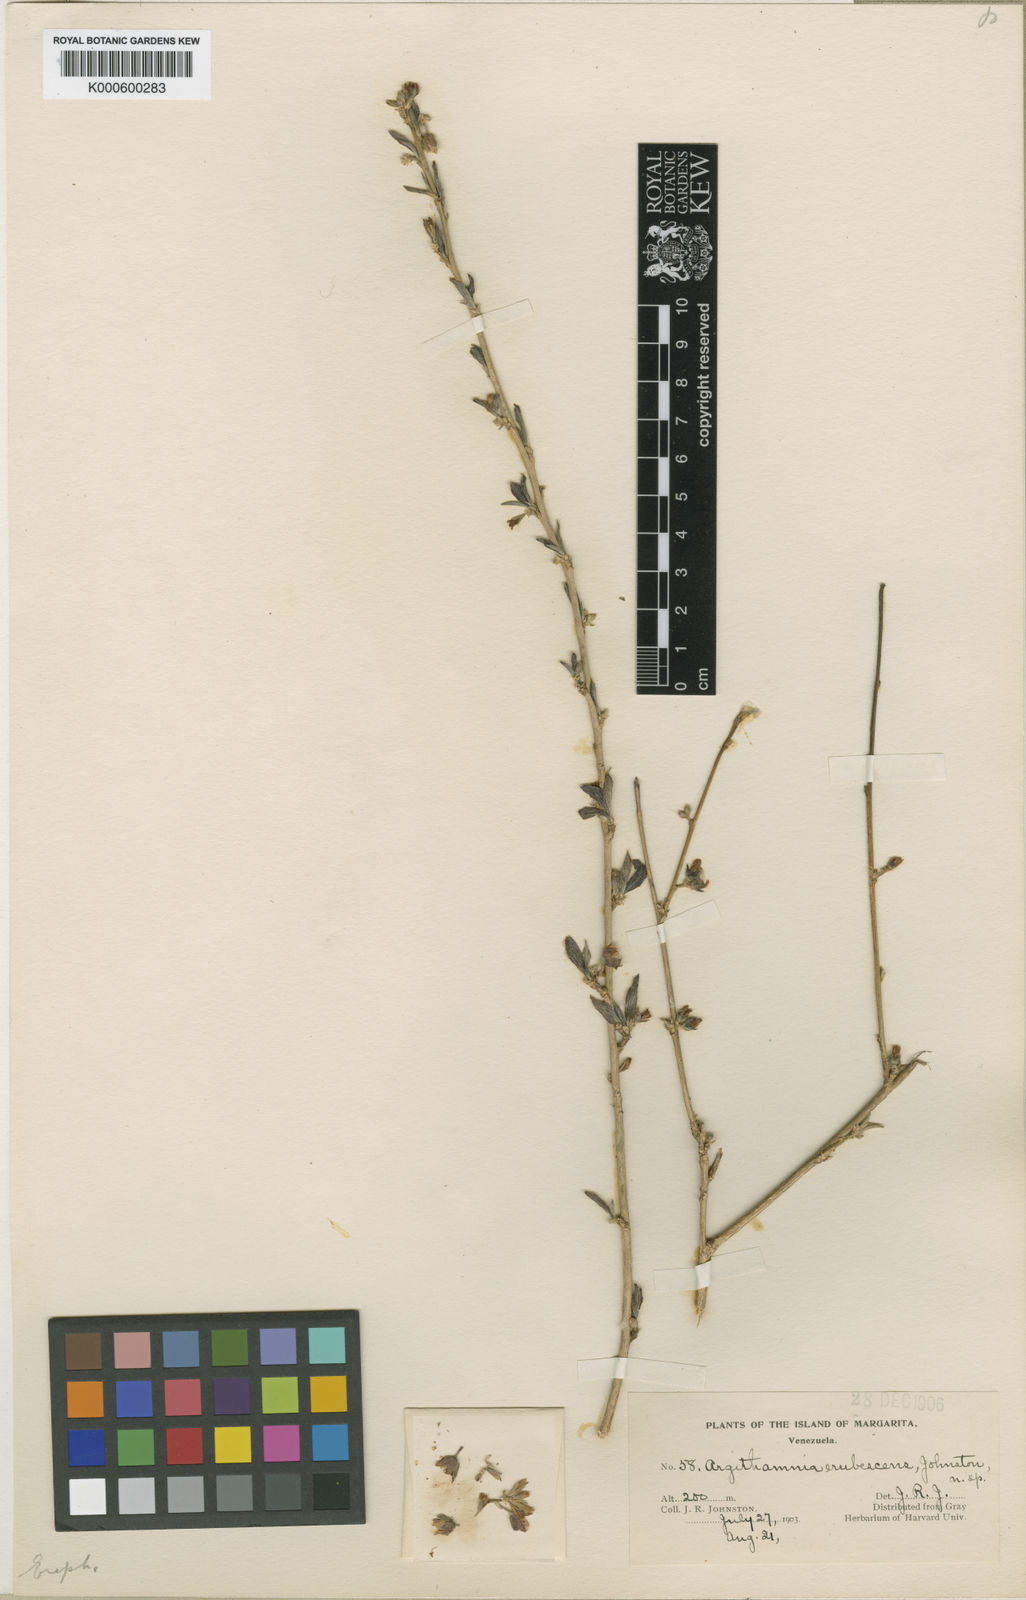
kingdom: Plantae
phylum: Tracheophyta
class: Magnoliopsida
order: Malpighiales
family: Euphorbiaceae
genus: Ditaxis
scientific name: Ditaxis erubescens
